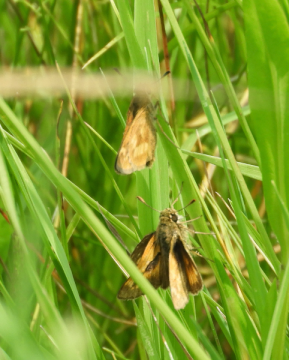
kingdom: Animalia
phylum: Arthropoda
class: Insecta
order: Lepidoptera
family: Hesperiidae
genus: Polites
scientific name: Polites
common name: Long Dash Skipper
